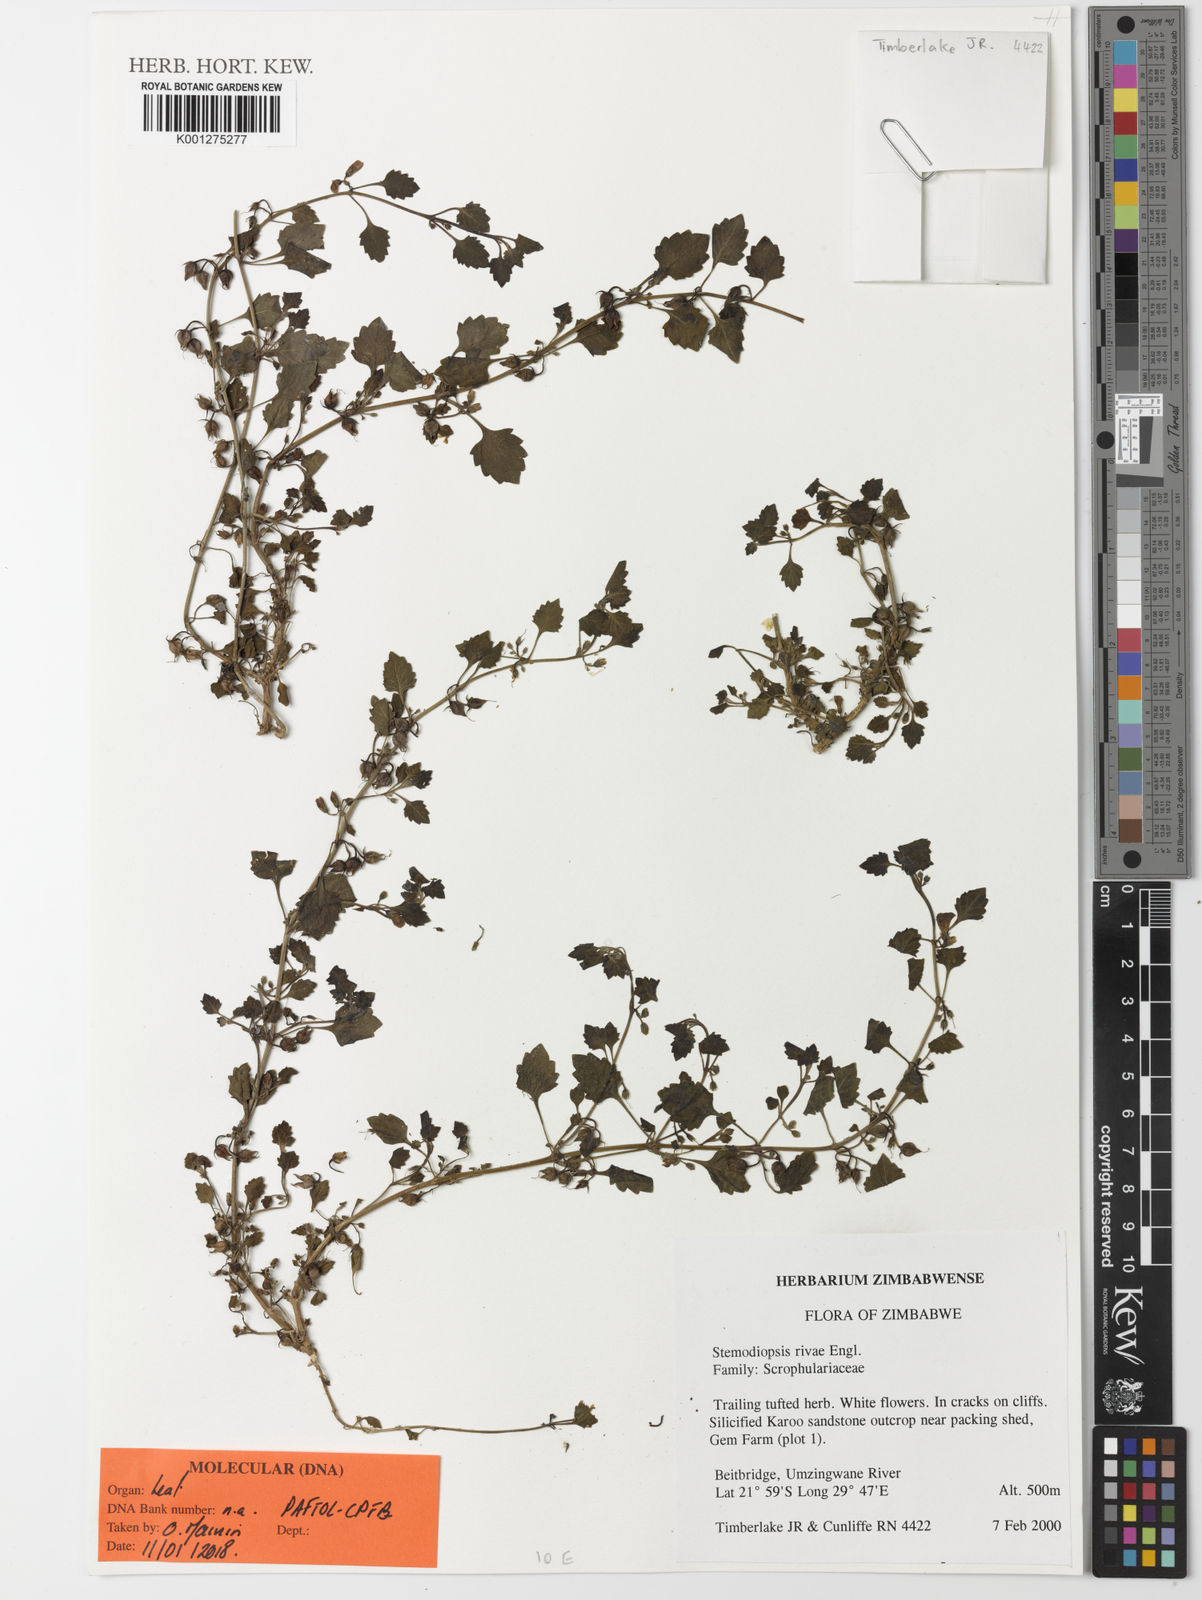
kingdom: Plantae
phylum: Tracheophyta
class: Magnoliopsida
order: Lamiales
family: Linderniaceae
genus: Stemodiopsis
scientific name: Stemodiopsis rivae
